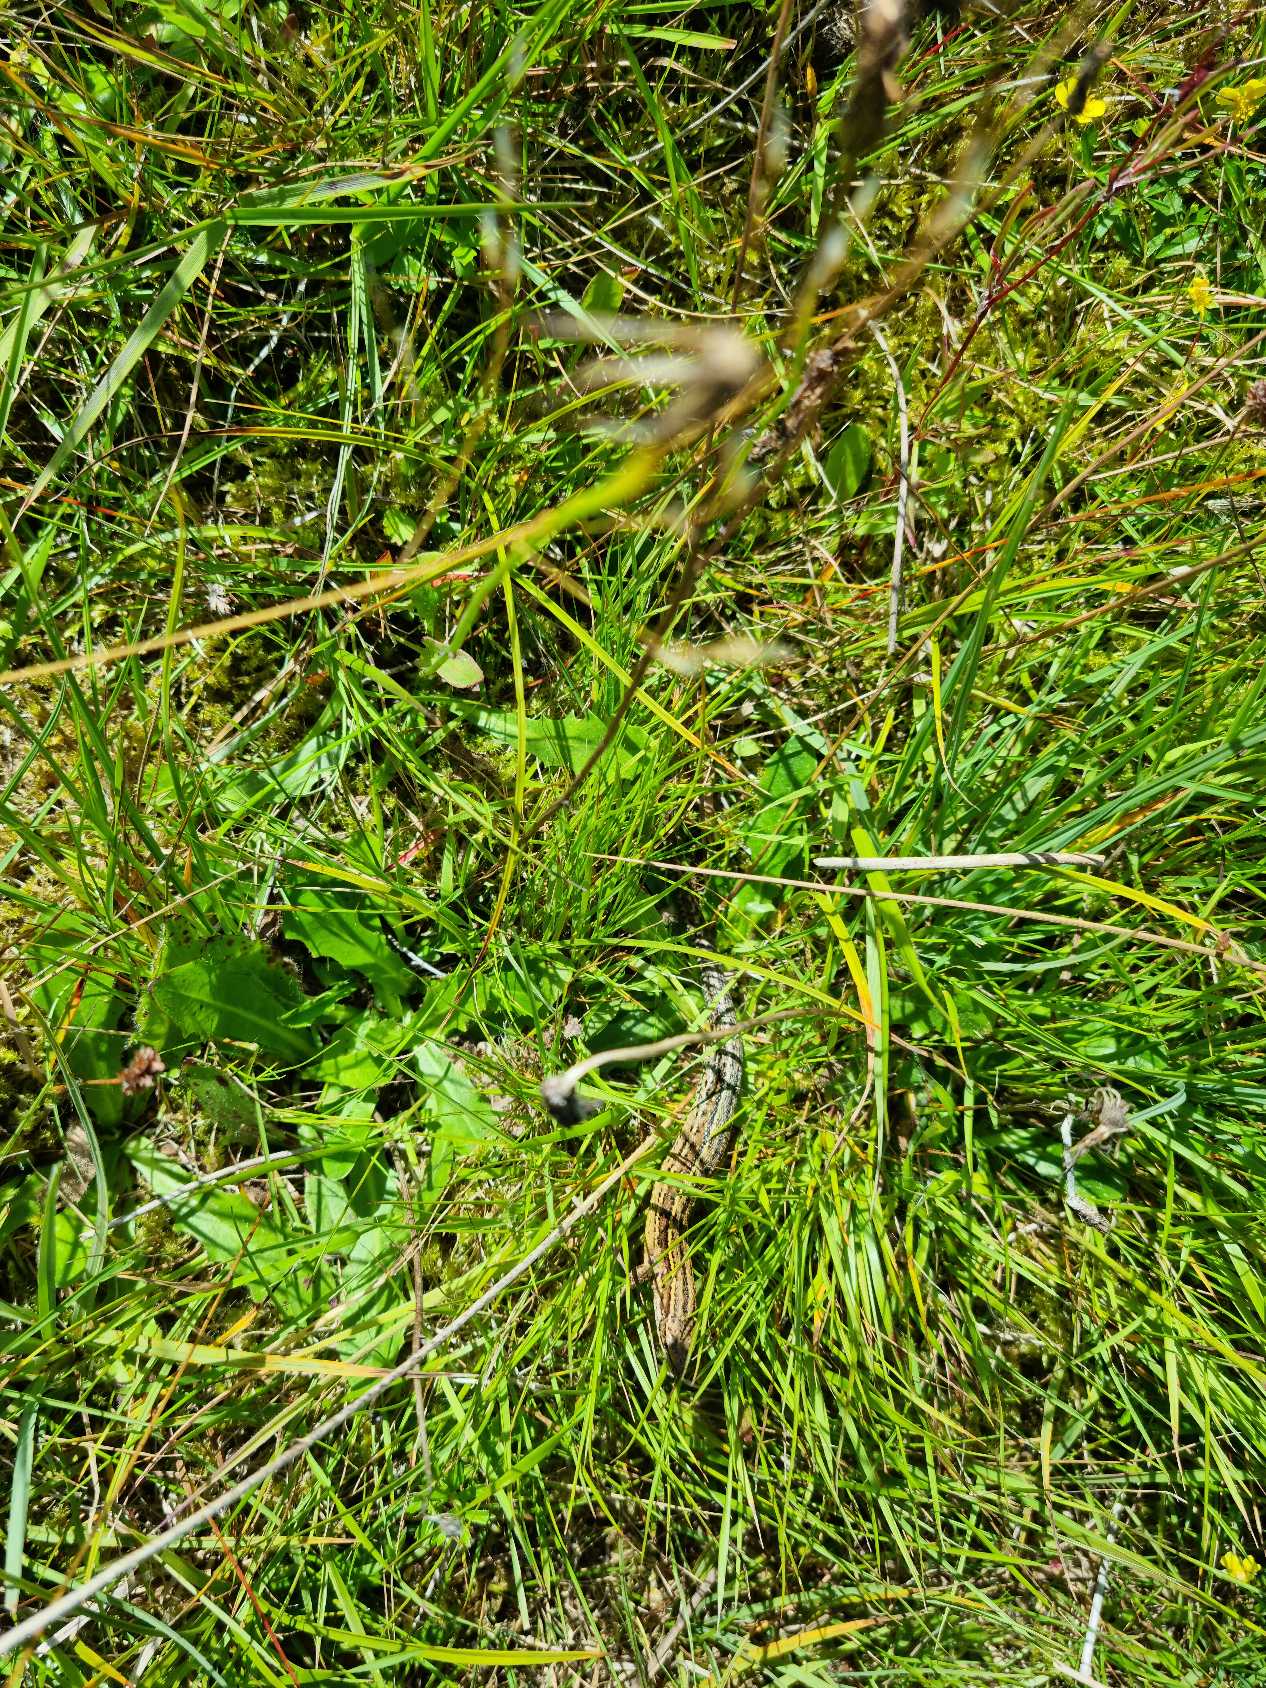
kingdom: Animalia
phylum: Chordata
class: Squamata
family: Lacertidae
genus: Zootoca
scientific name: Zootoca vivipara
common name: Skovfirben
